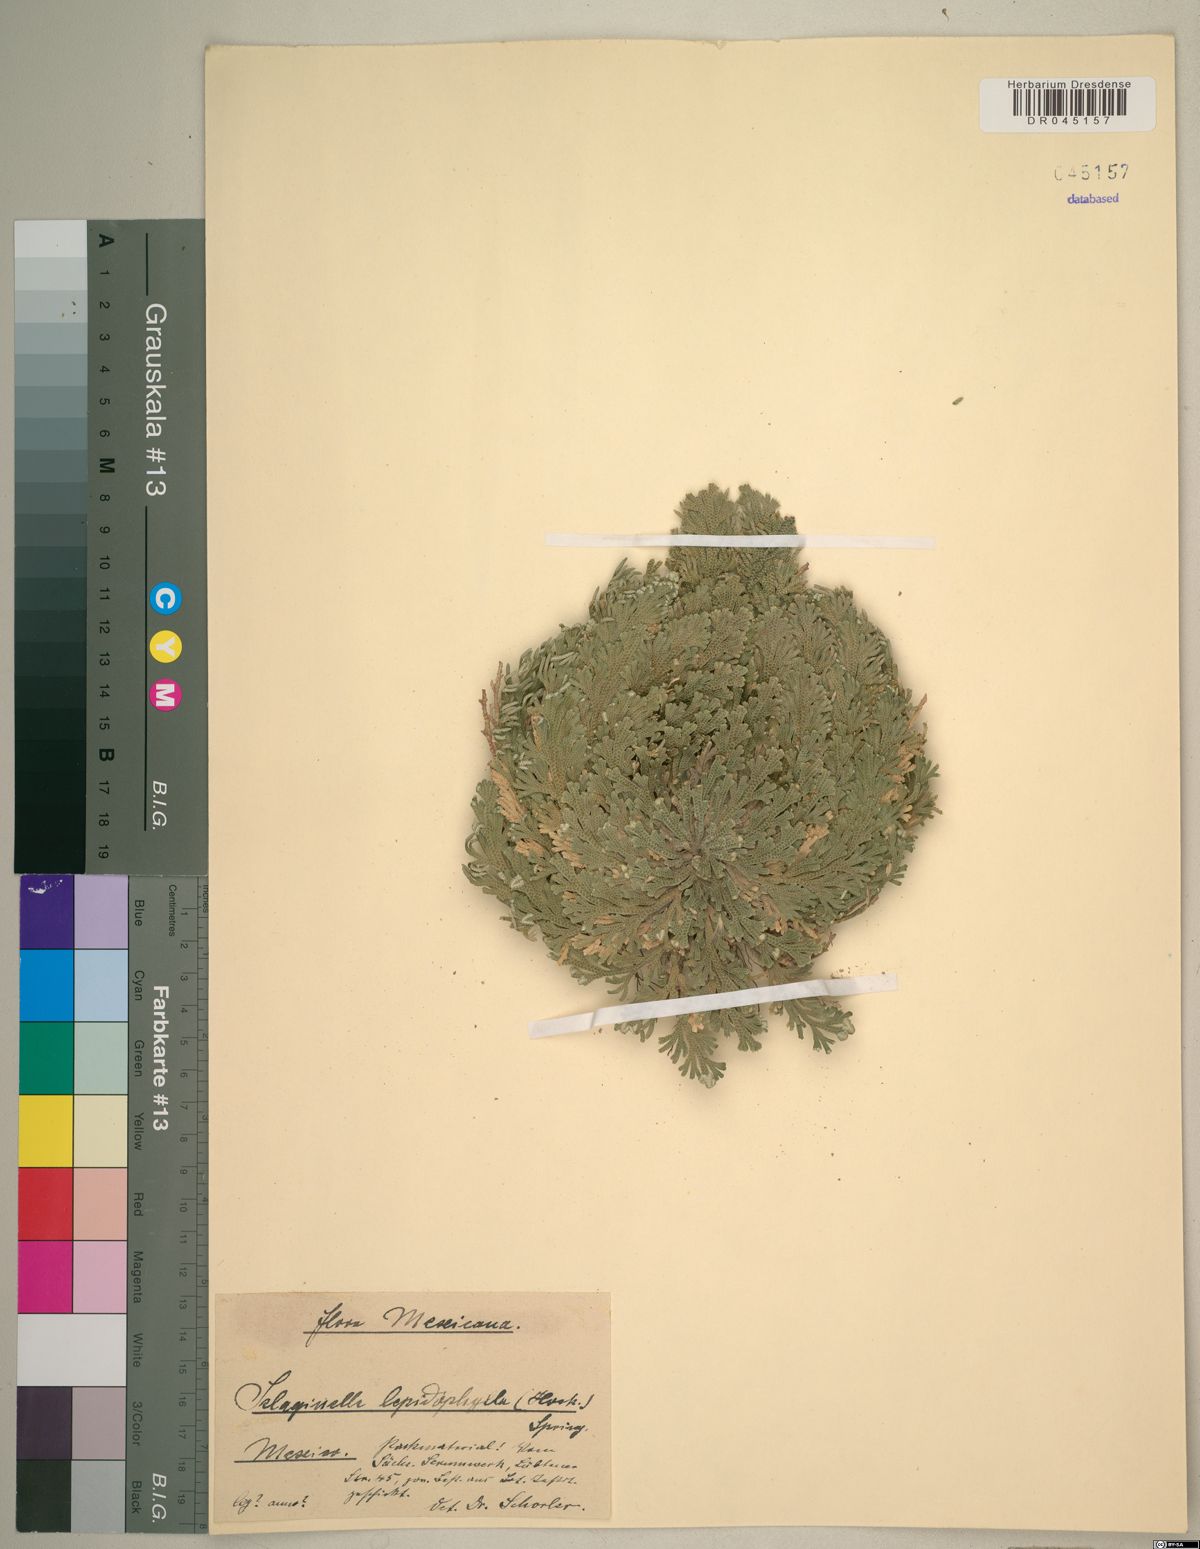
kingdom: Plantae
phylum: Tracheophyta
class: Lycopodiopsida
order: Selaginellales
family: Selaginellaceae
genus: Selaginella
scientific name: Selaginella lepidophylla
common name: Rose-of-jericho
